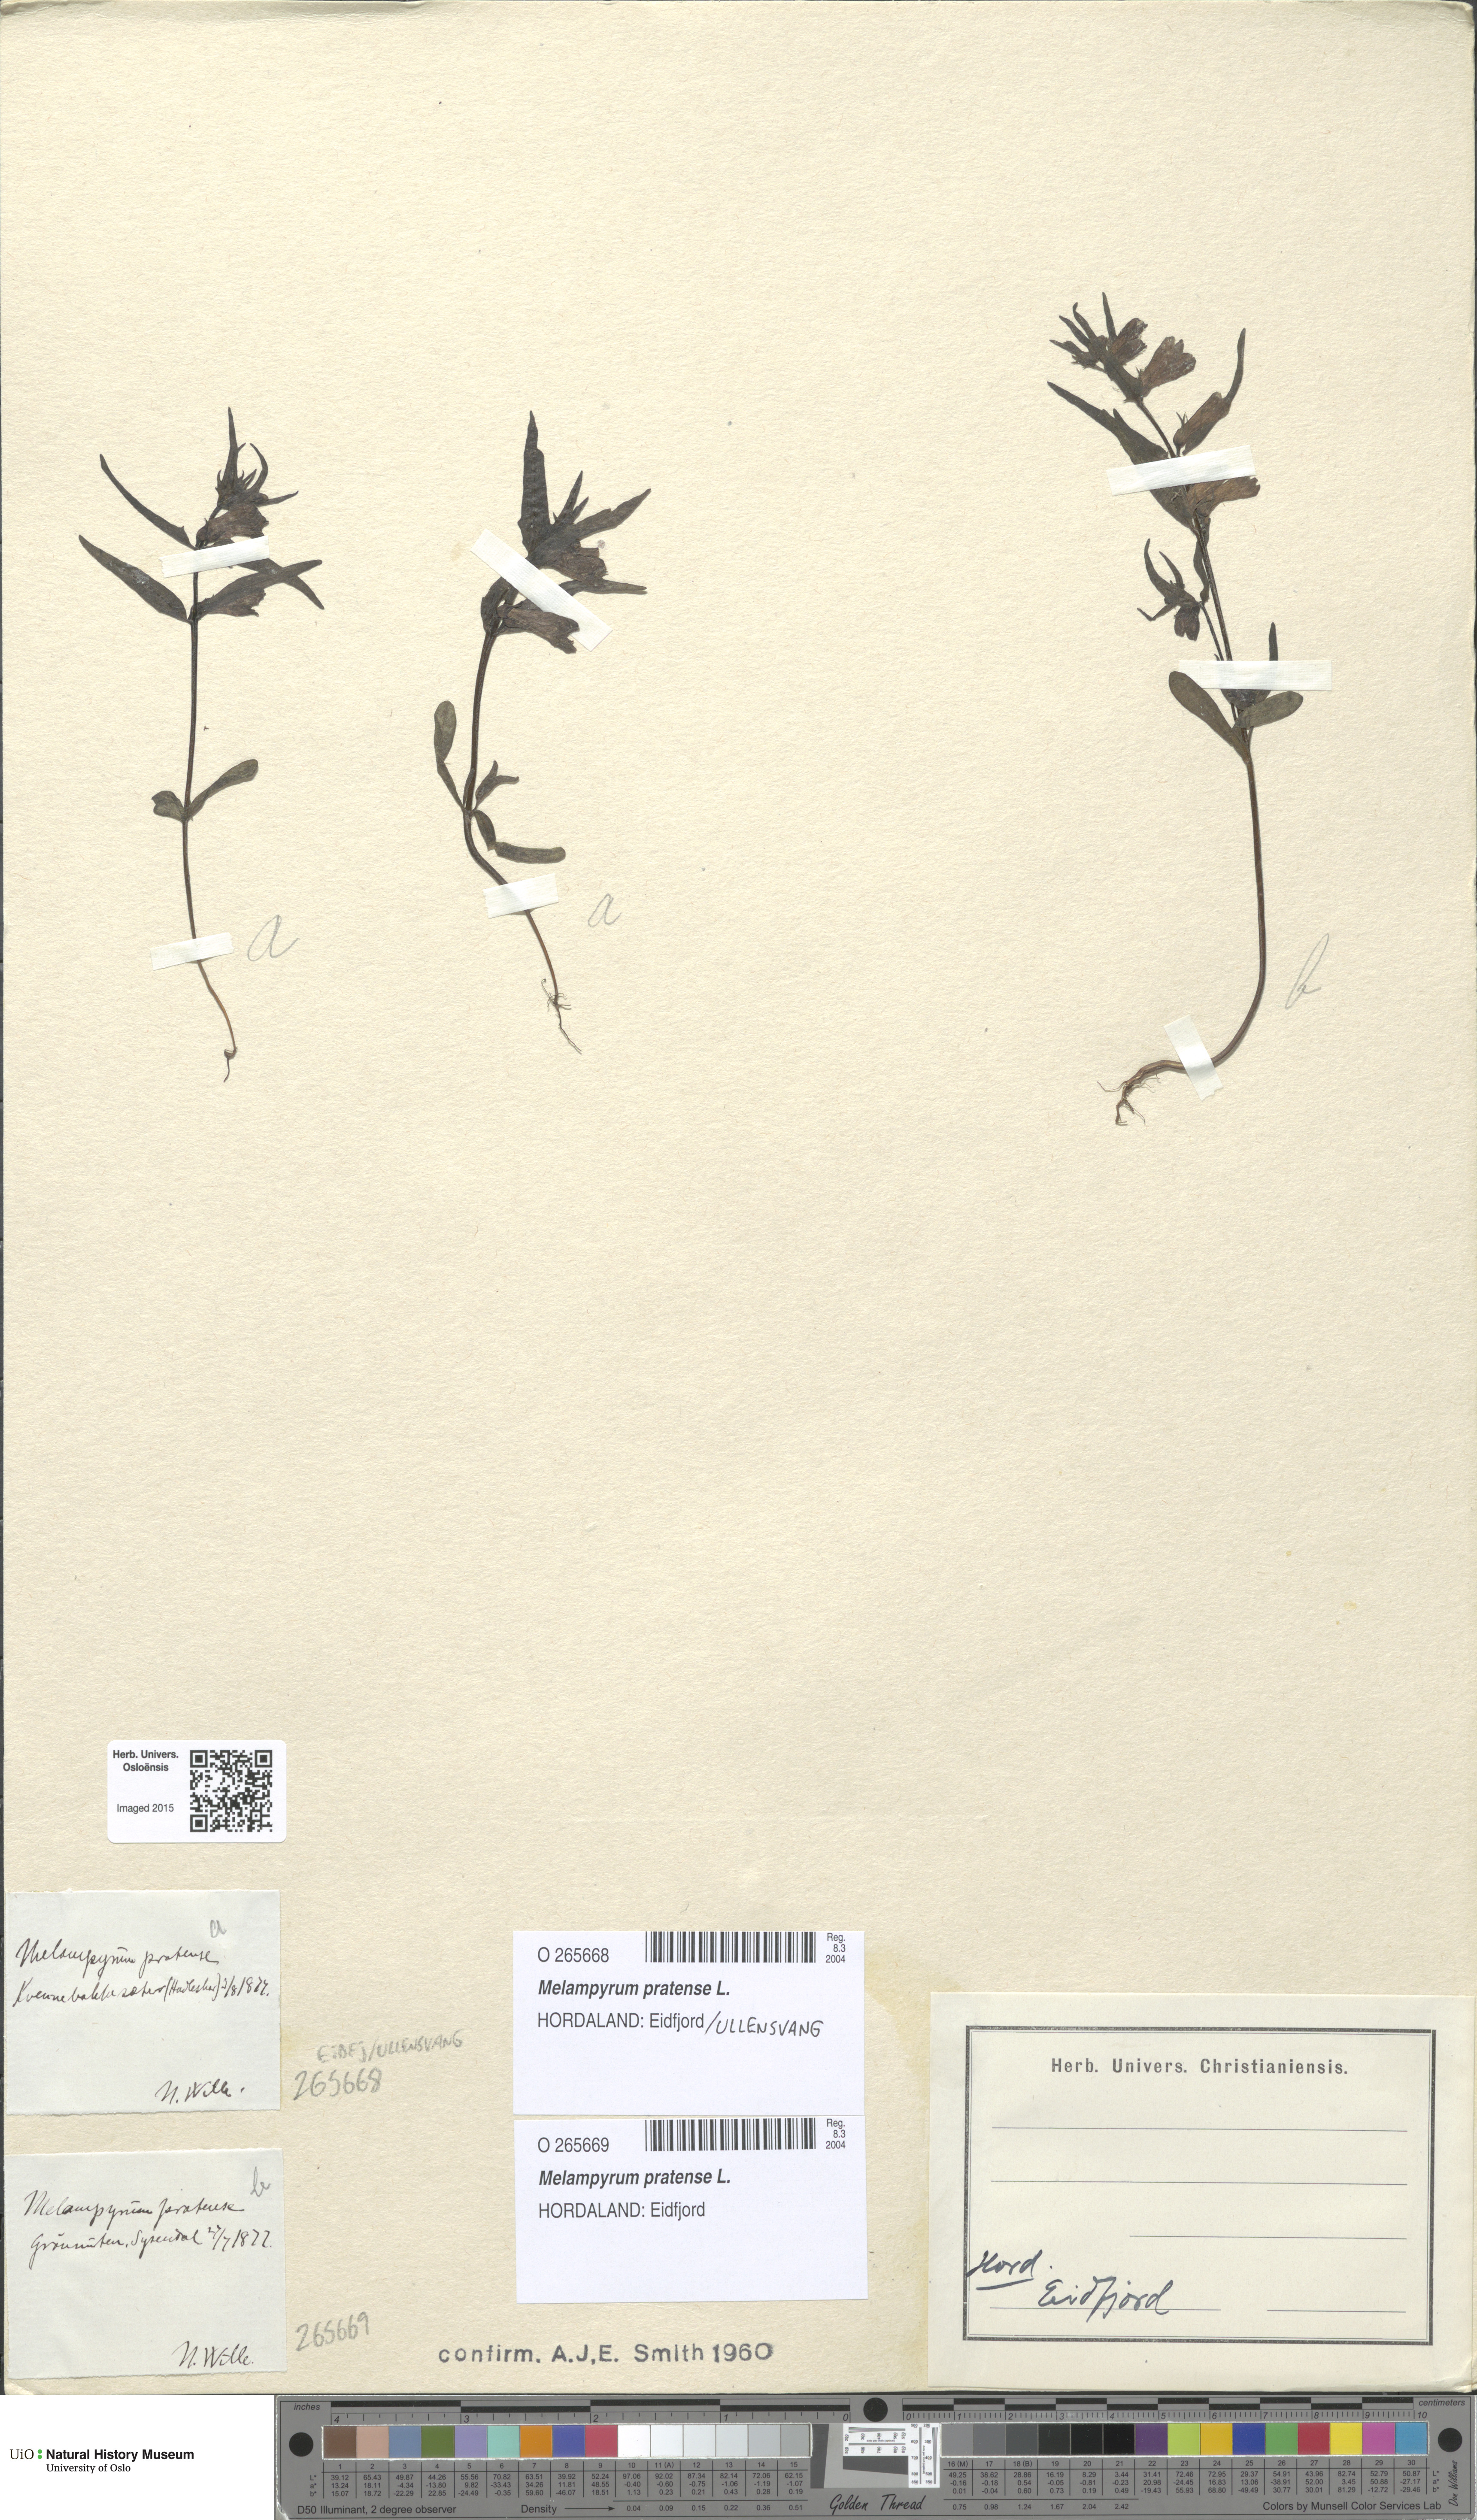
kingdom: Plantae
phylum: Tracheophyta
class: Magnoliopsida
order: Lamiales
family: Orobanchaceae
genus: Melampyrum
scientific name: Melampyrum pratense
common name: Common cow-wheat
